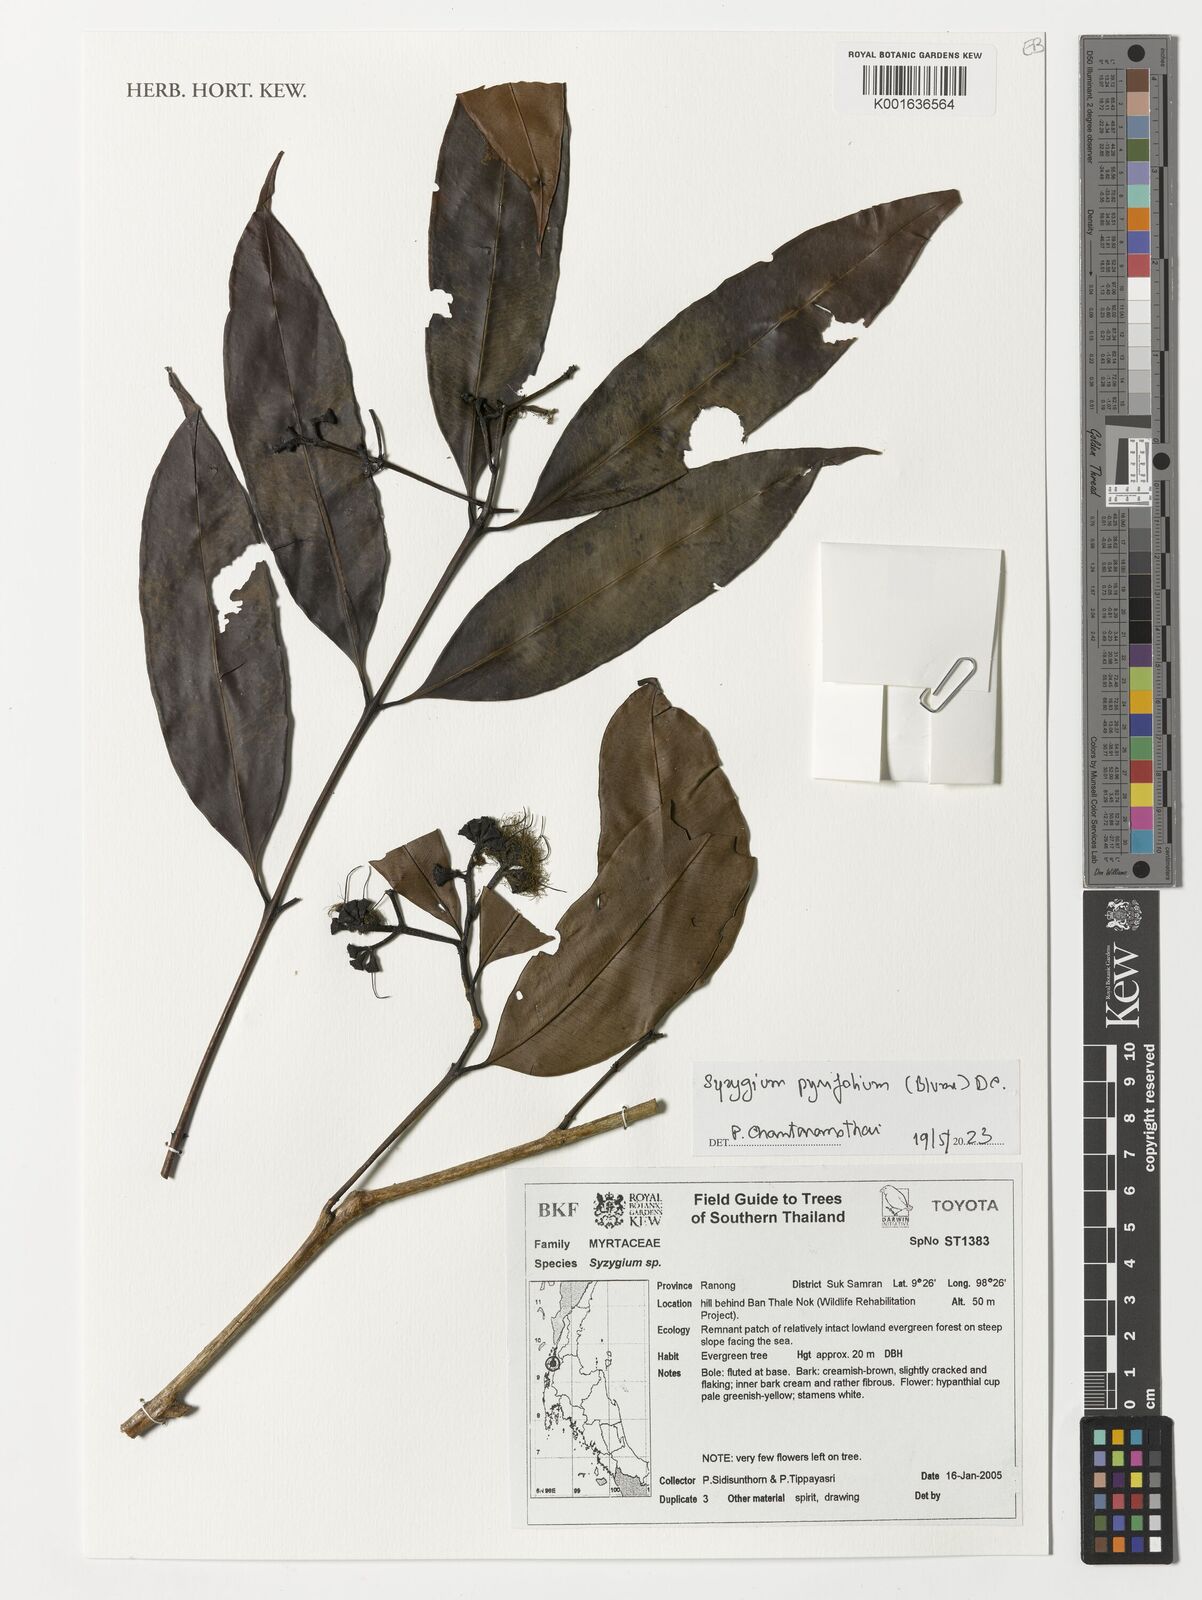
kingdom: Plantae
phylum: Tracheophyta
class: Magnoliopsida
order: Myrtales
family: Myrtaceae
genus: Syzygium
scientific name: Syzygium pyrifolium
